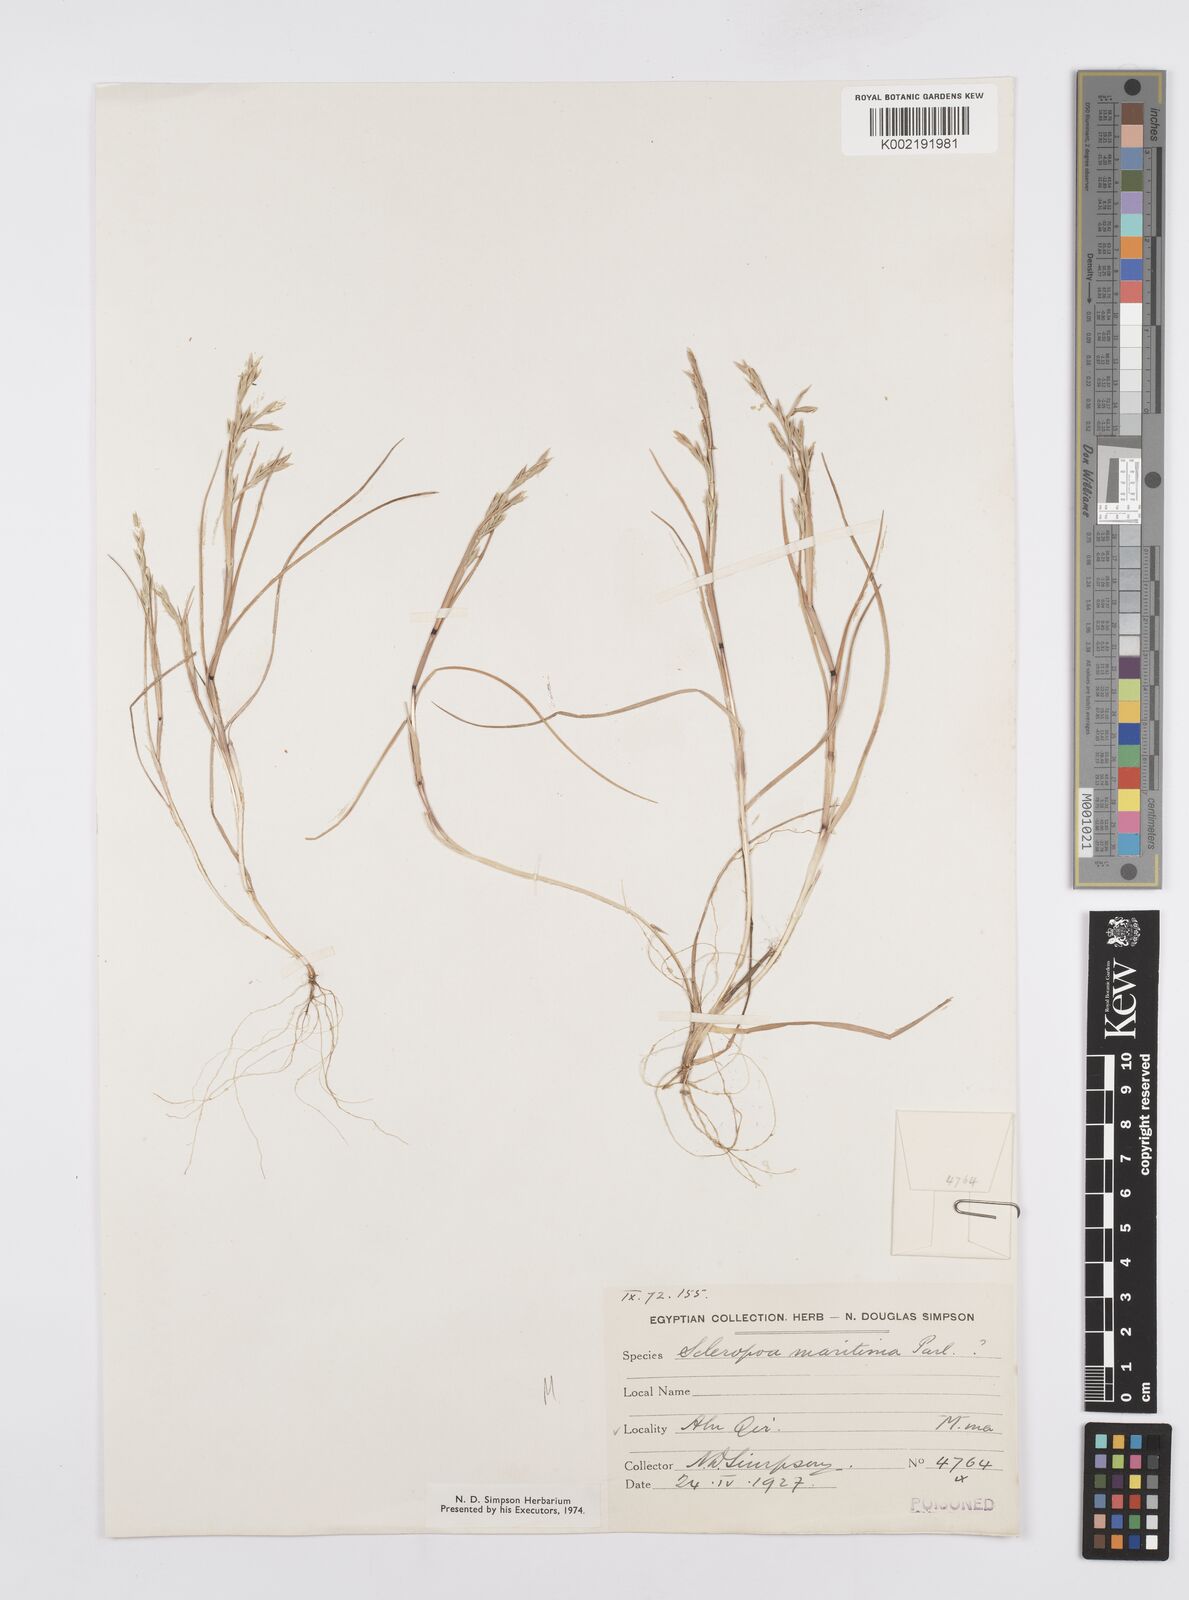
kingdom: Plantae
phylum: Tracheophyta
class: Liliopsida
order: Poales
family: Poaceae
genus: Cutandia
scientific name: Cutandia maritima
